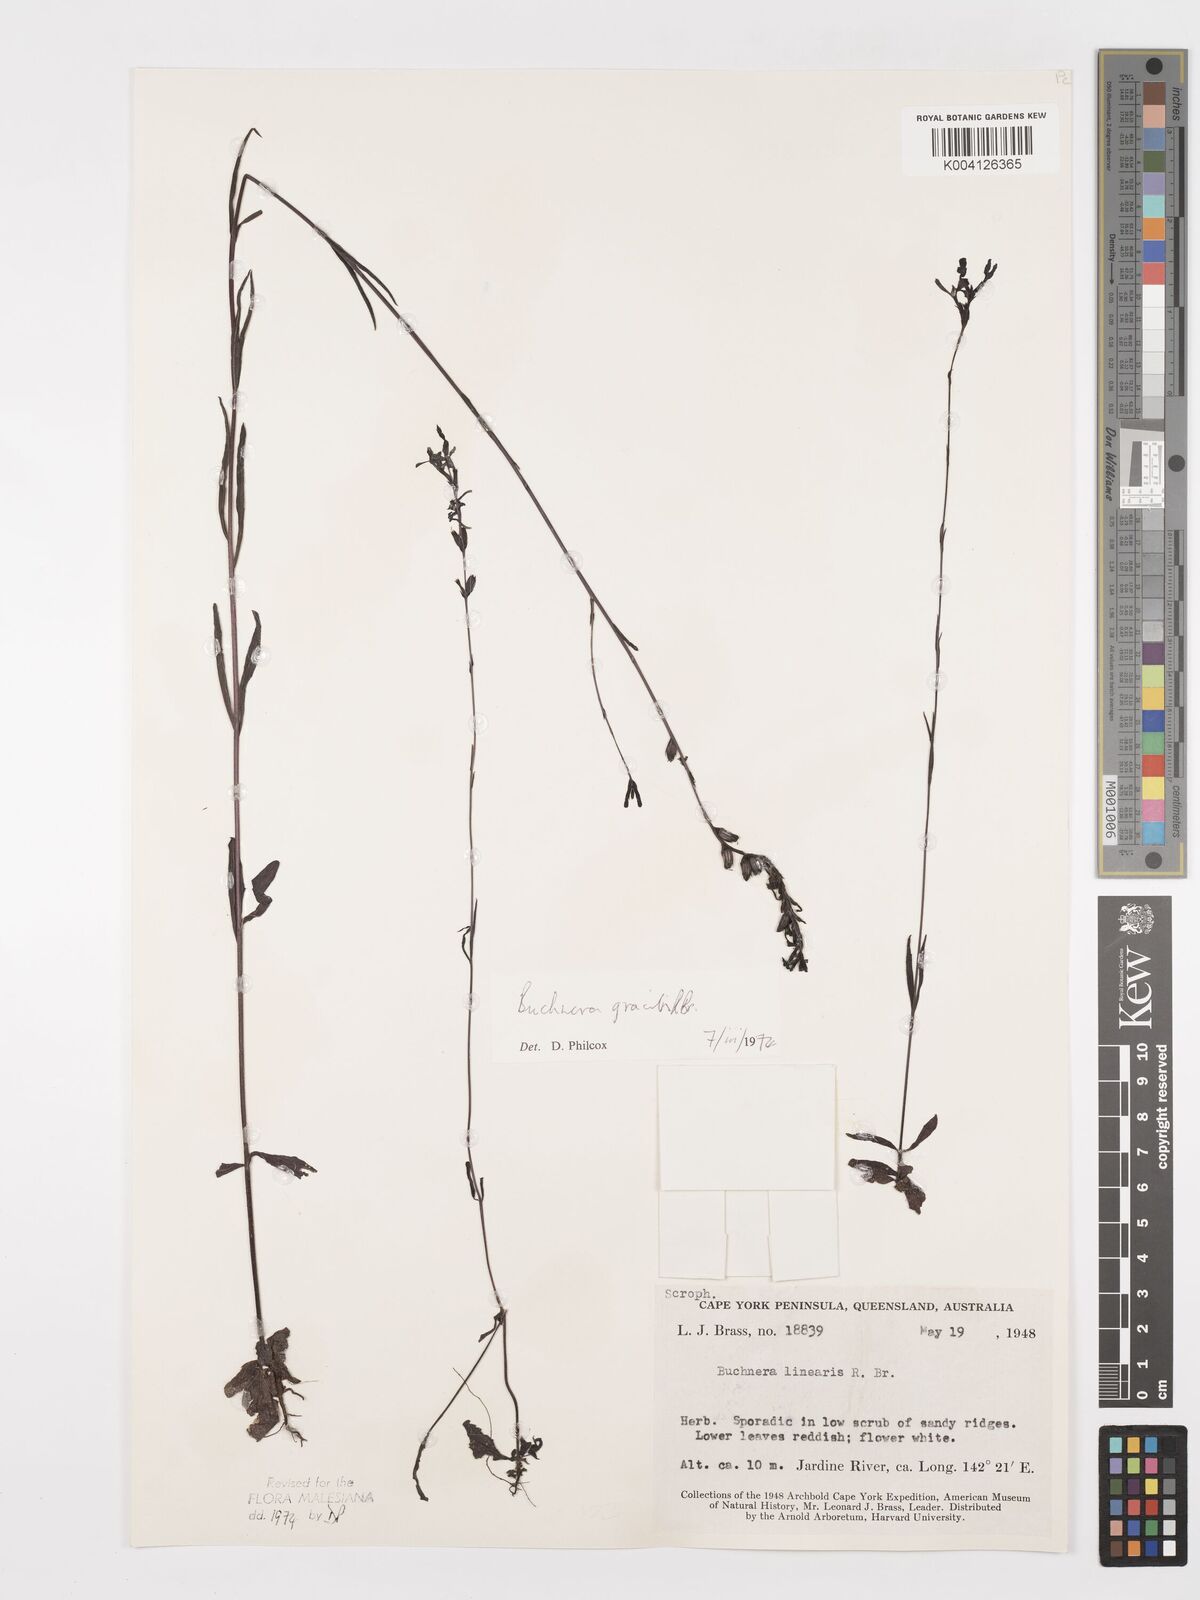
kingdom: Plantae
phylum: Tracheophyta
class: Magnoliopsida
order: Lamiales
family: Orobanchaceae
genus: Buchnera
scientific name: Buchnera gracilis
